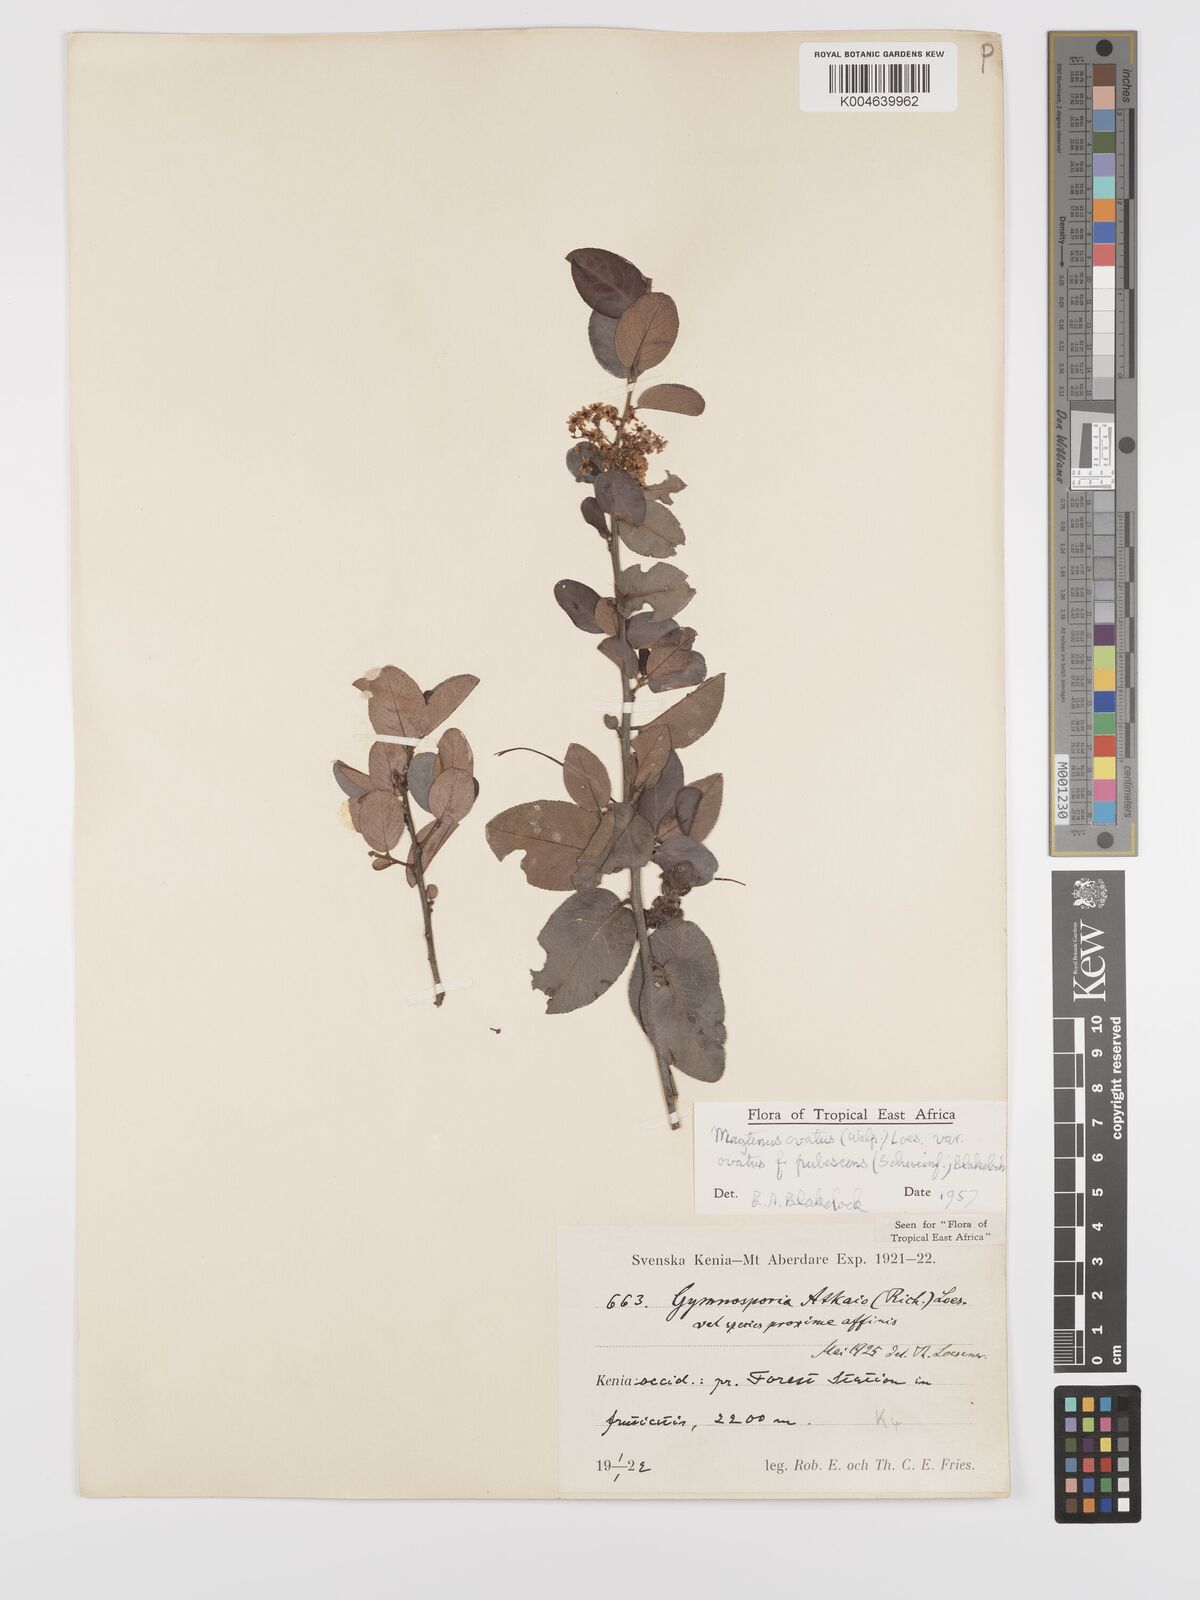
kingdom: Plantae
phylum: Tracheophyta
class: Magnoliopsida
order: Celastrales
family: Celastraceae
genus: Gymnosporia
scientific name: Gymnosporia
